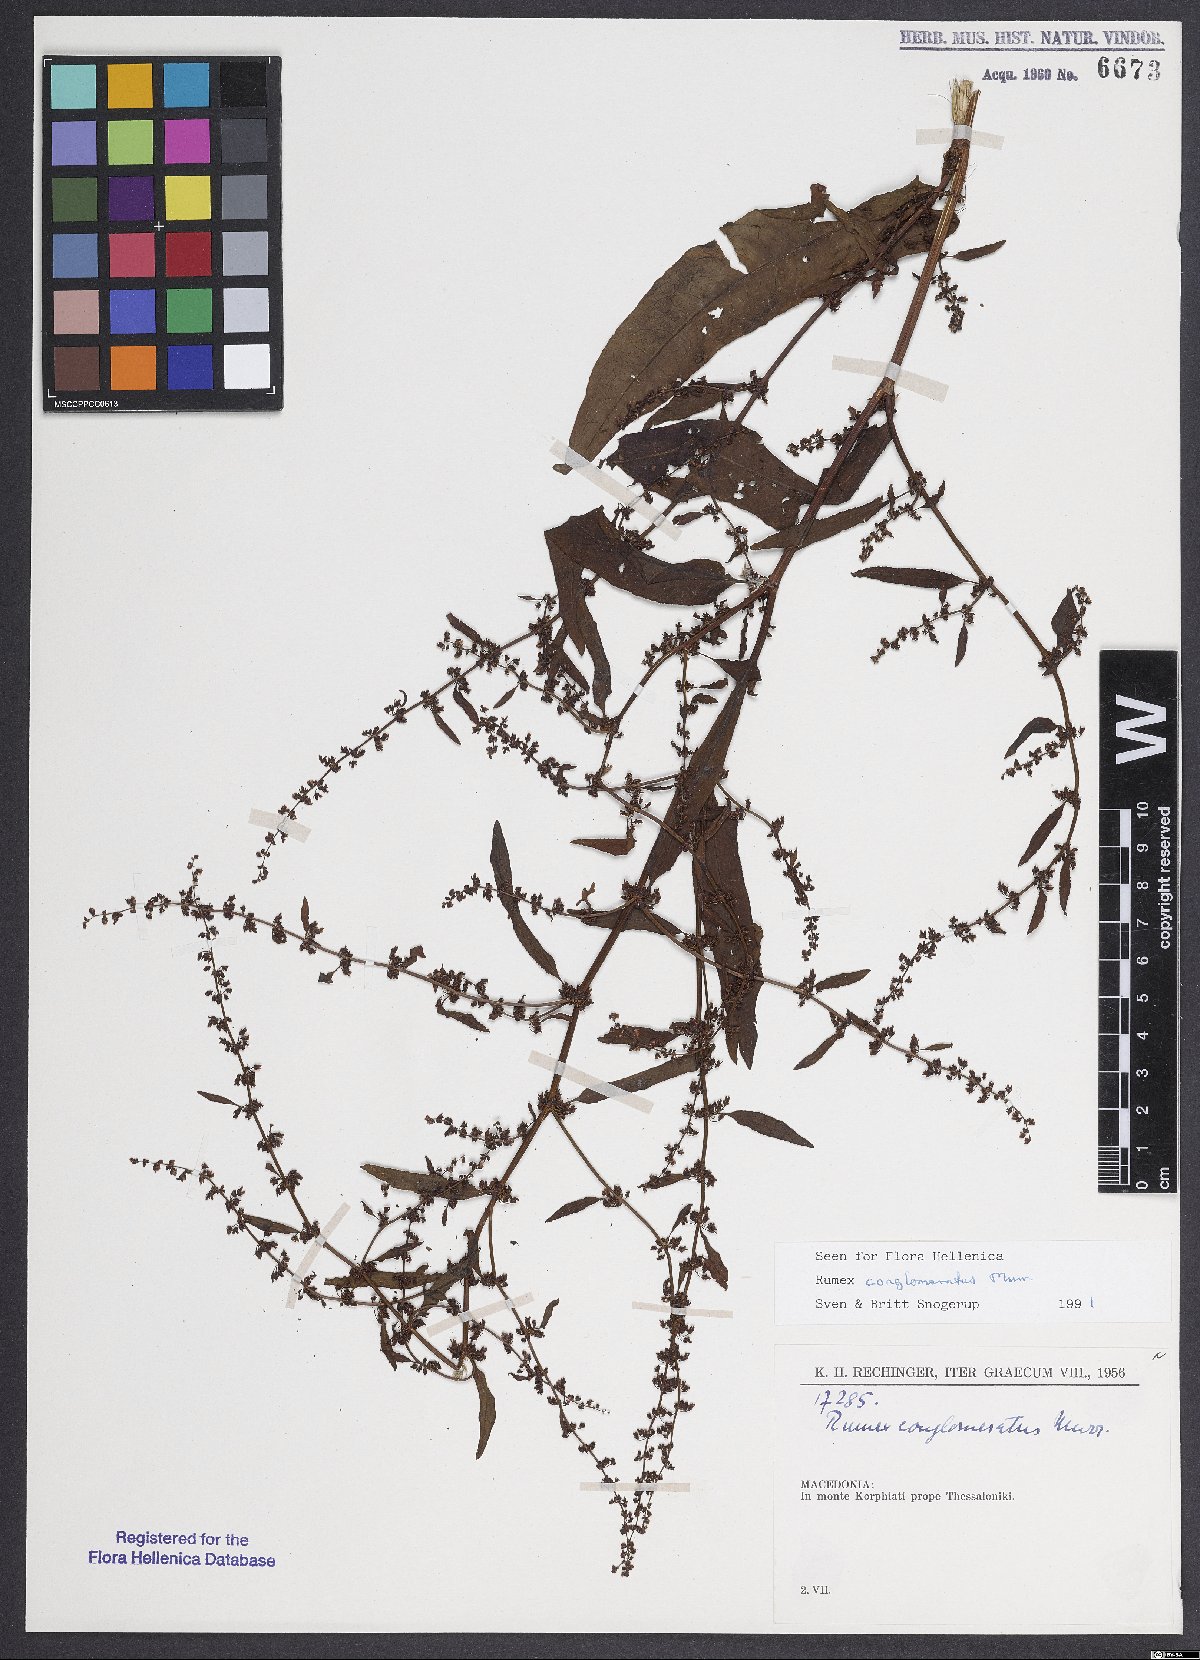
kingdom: Plantae
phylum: Tracheophyta
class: Magnoliopsida
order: Caryophyllales
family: Polygonaceae
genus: Rumex
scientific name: Rumex conglomeratus
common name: Clustered dock
